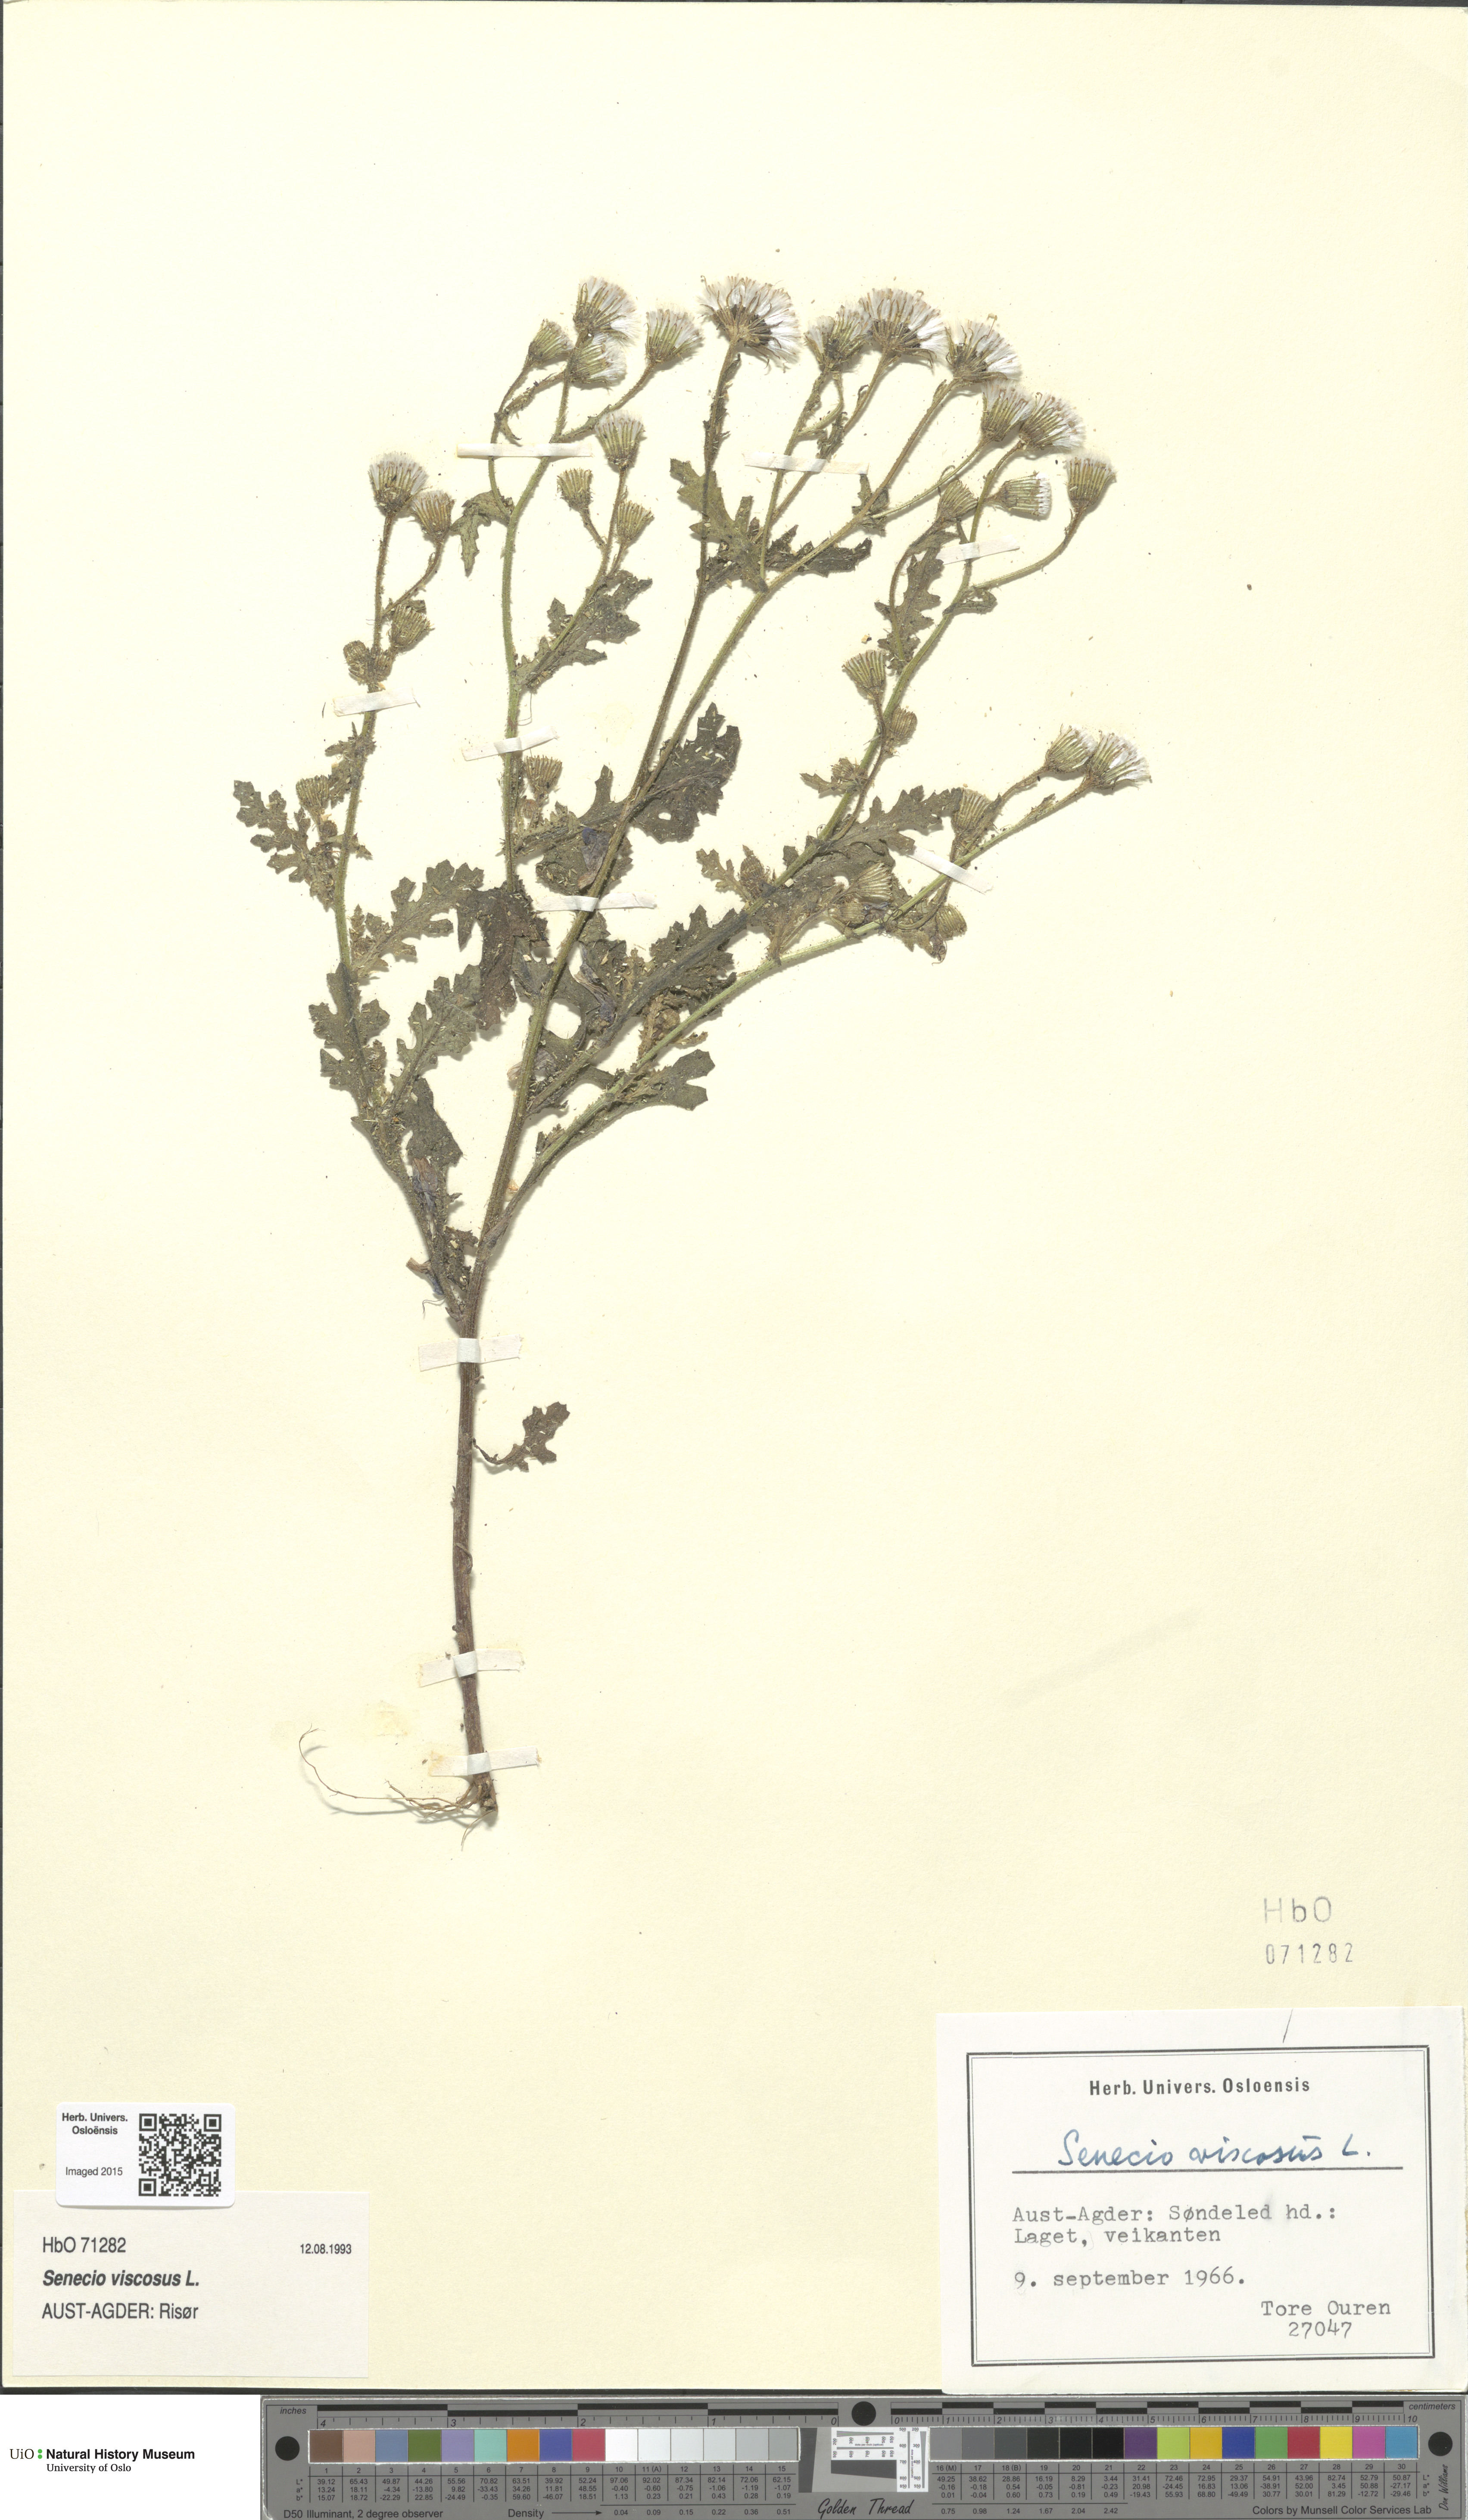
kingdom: Plantae
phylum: Tracheophyta
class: Magnoliopsida
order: Asterales
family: Asteraceae
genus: Senecio
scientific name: Senecio viscosus
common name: Sticky groundsel
